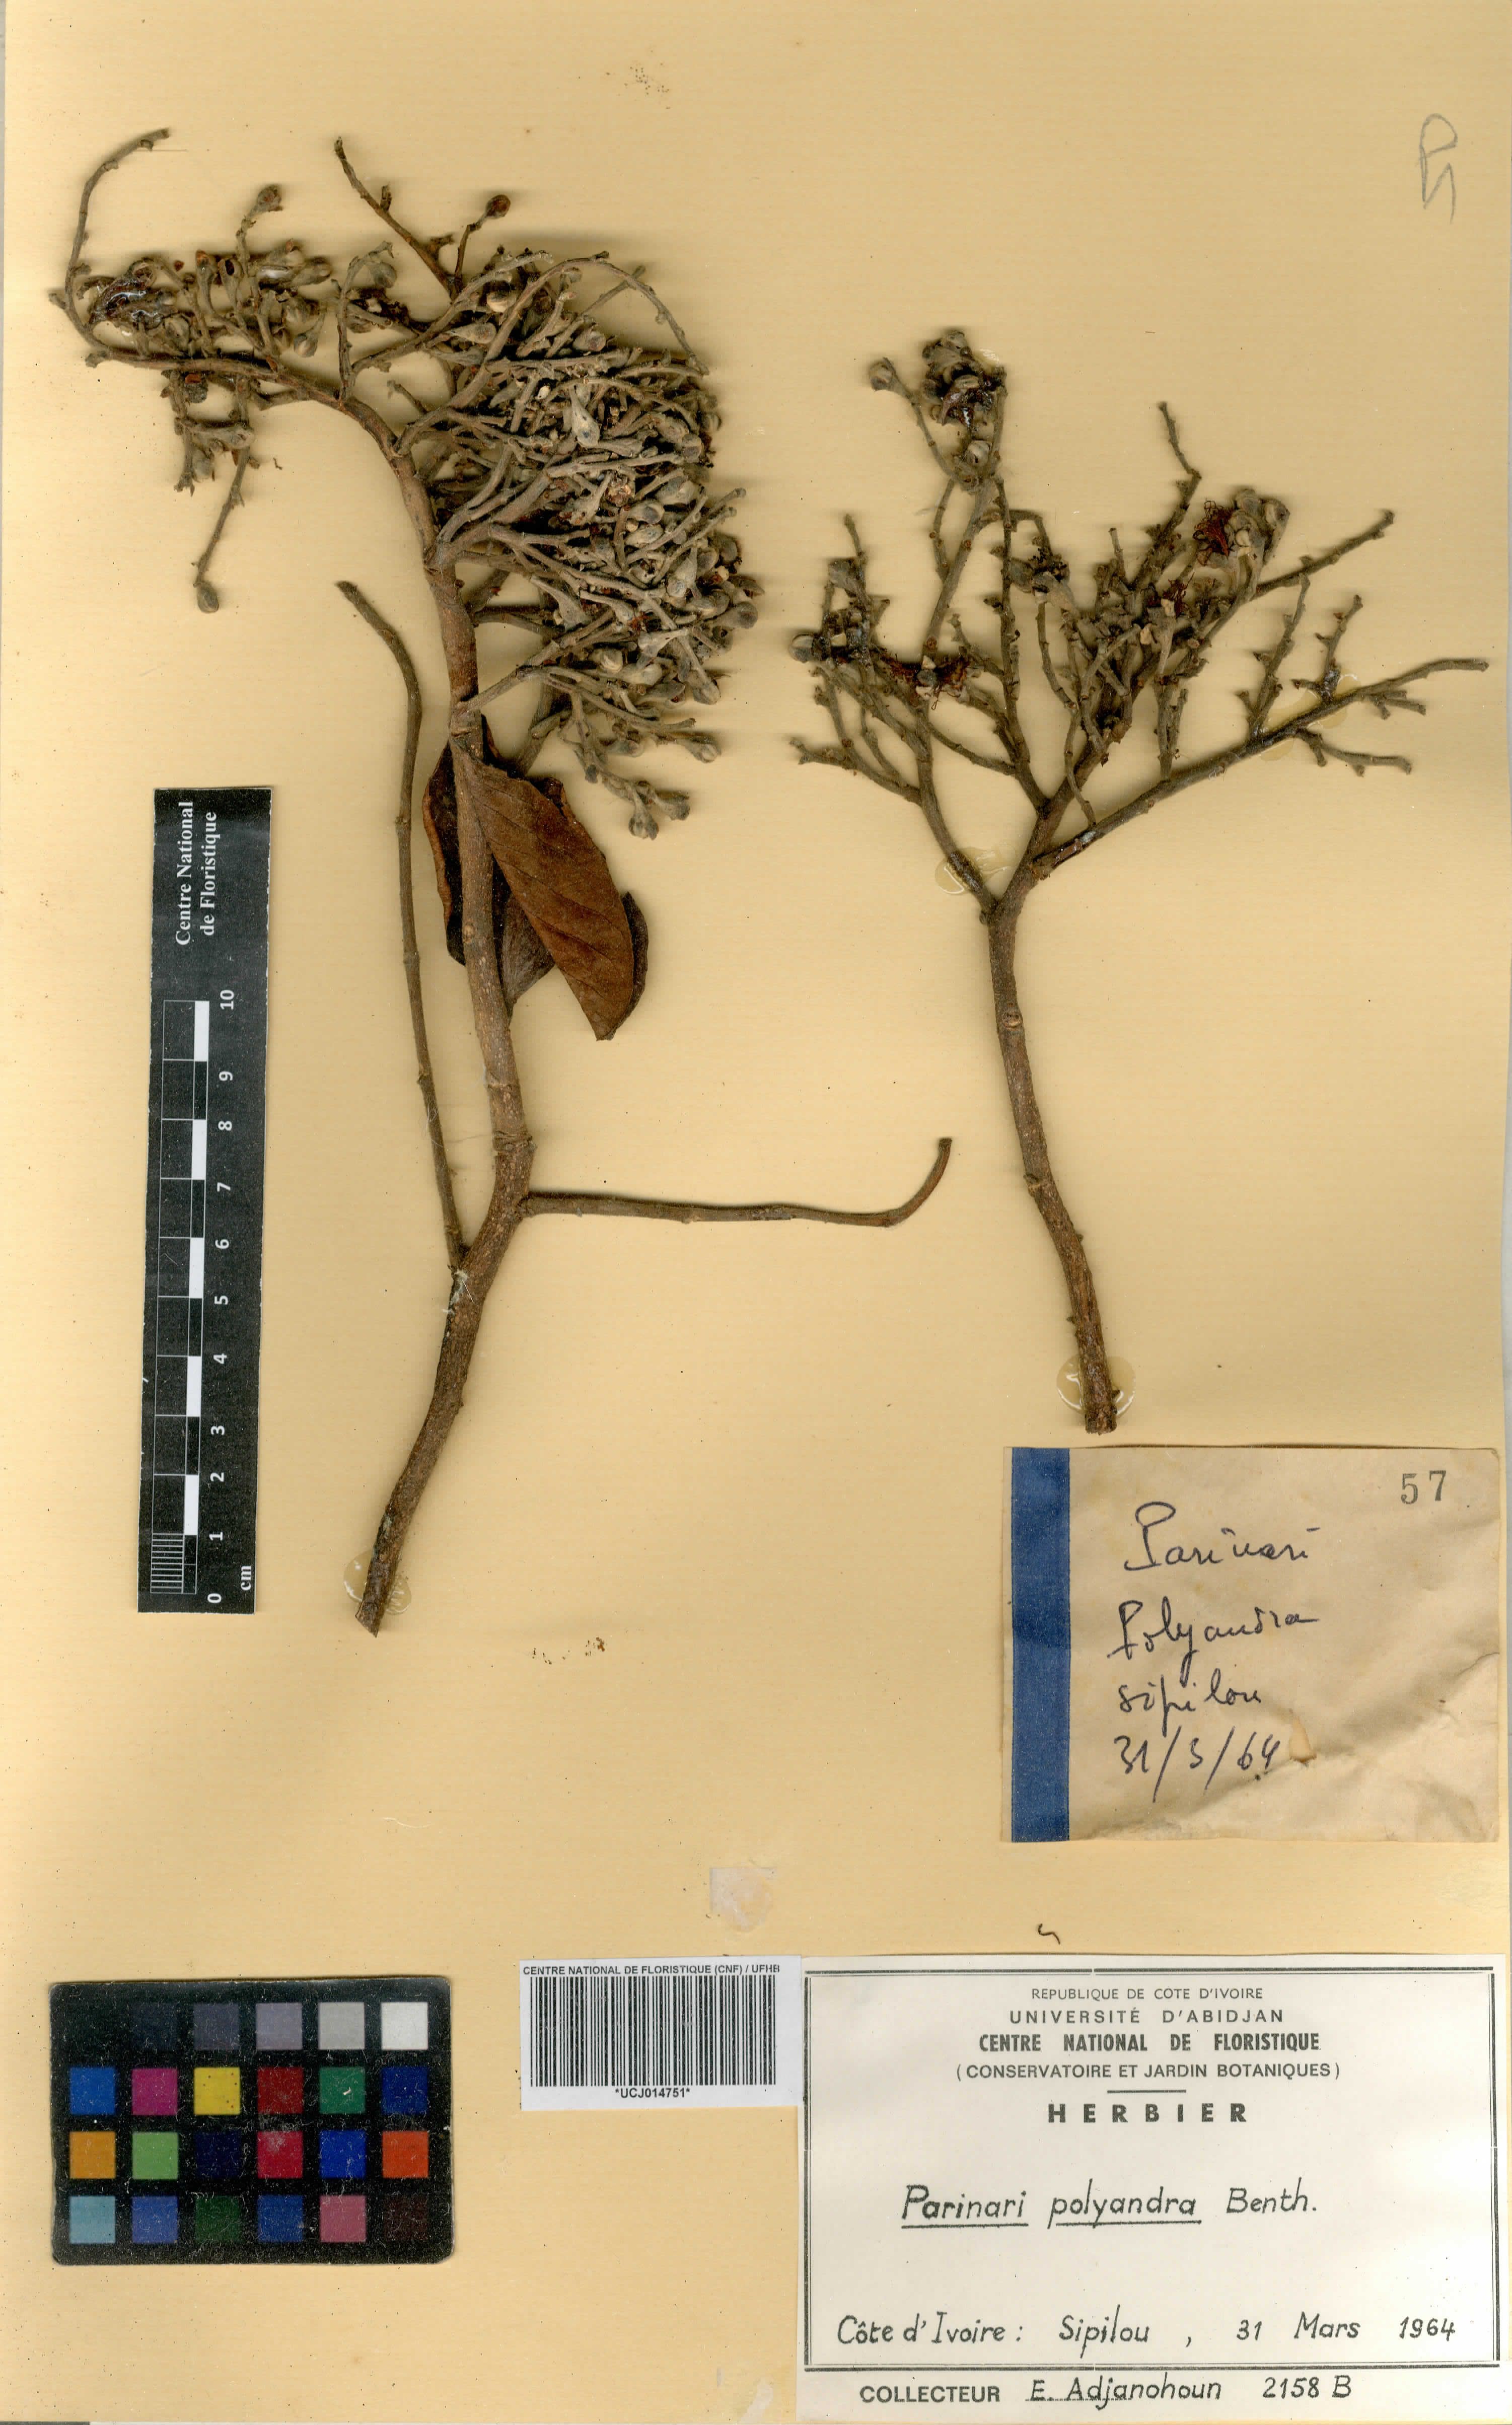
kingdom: Plantae
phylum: Tracheophyta
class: Magnoliopsida
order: Malpighiales
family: Chrysobalanaceae
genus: Maranthes
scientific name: Maranthes polyandra
